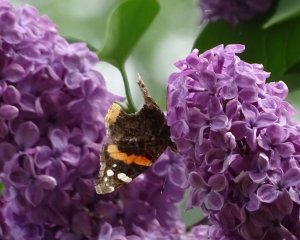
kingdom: Animalia
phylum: Arthropoda
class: Insecta
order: Lepidoptera
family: Nymphalidae
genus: Vanessa
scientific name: Vanessa atalanta
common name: Red Admiral
